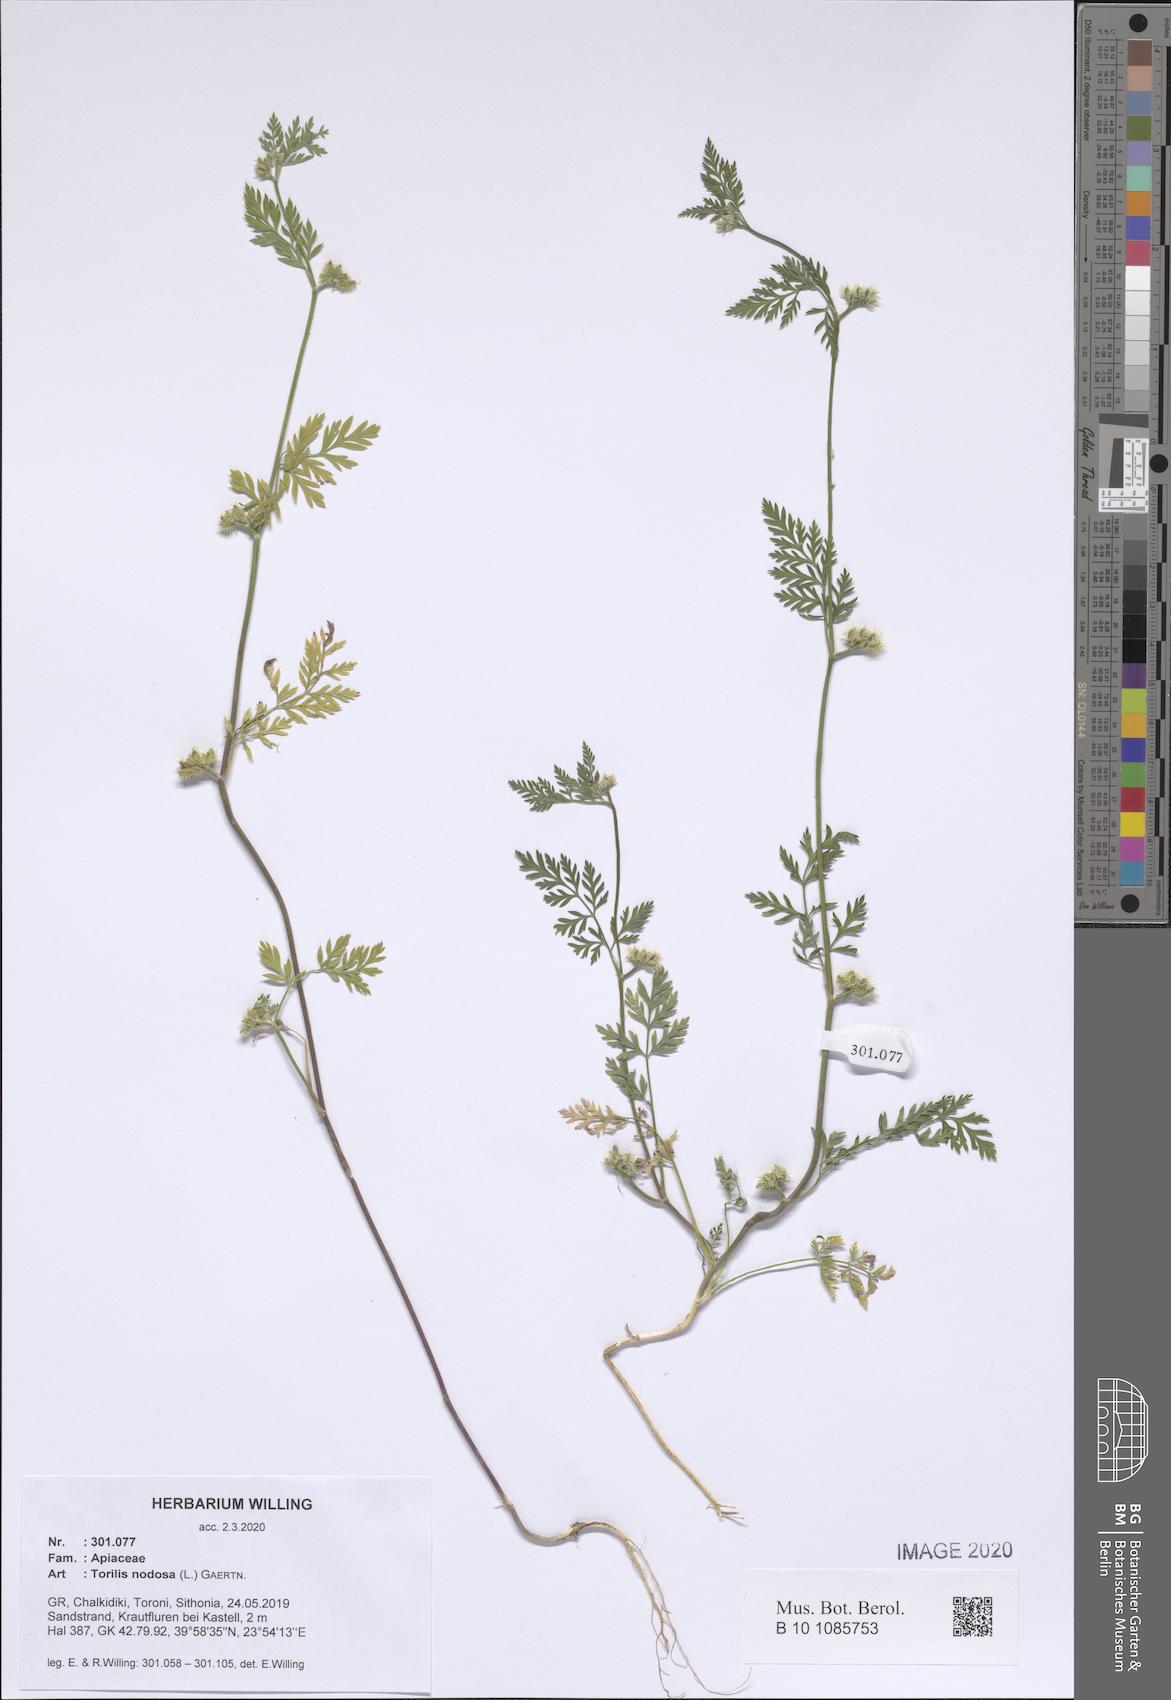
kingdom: Plantae
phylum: Tracheophyta
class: Magnoliopsida
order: Apiales
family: Apiaceae
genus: Torilis
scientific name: Torilis nodosa
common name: Knotted hedge-parsley
